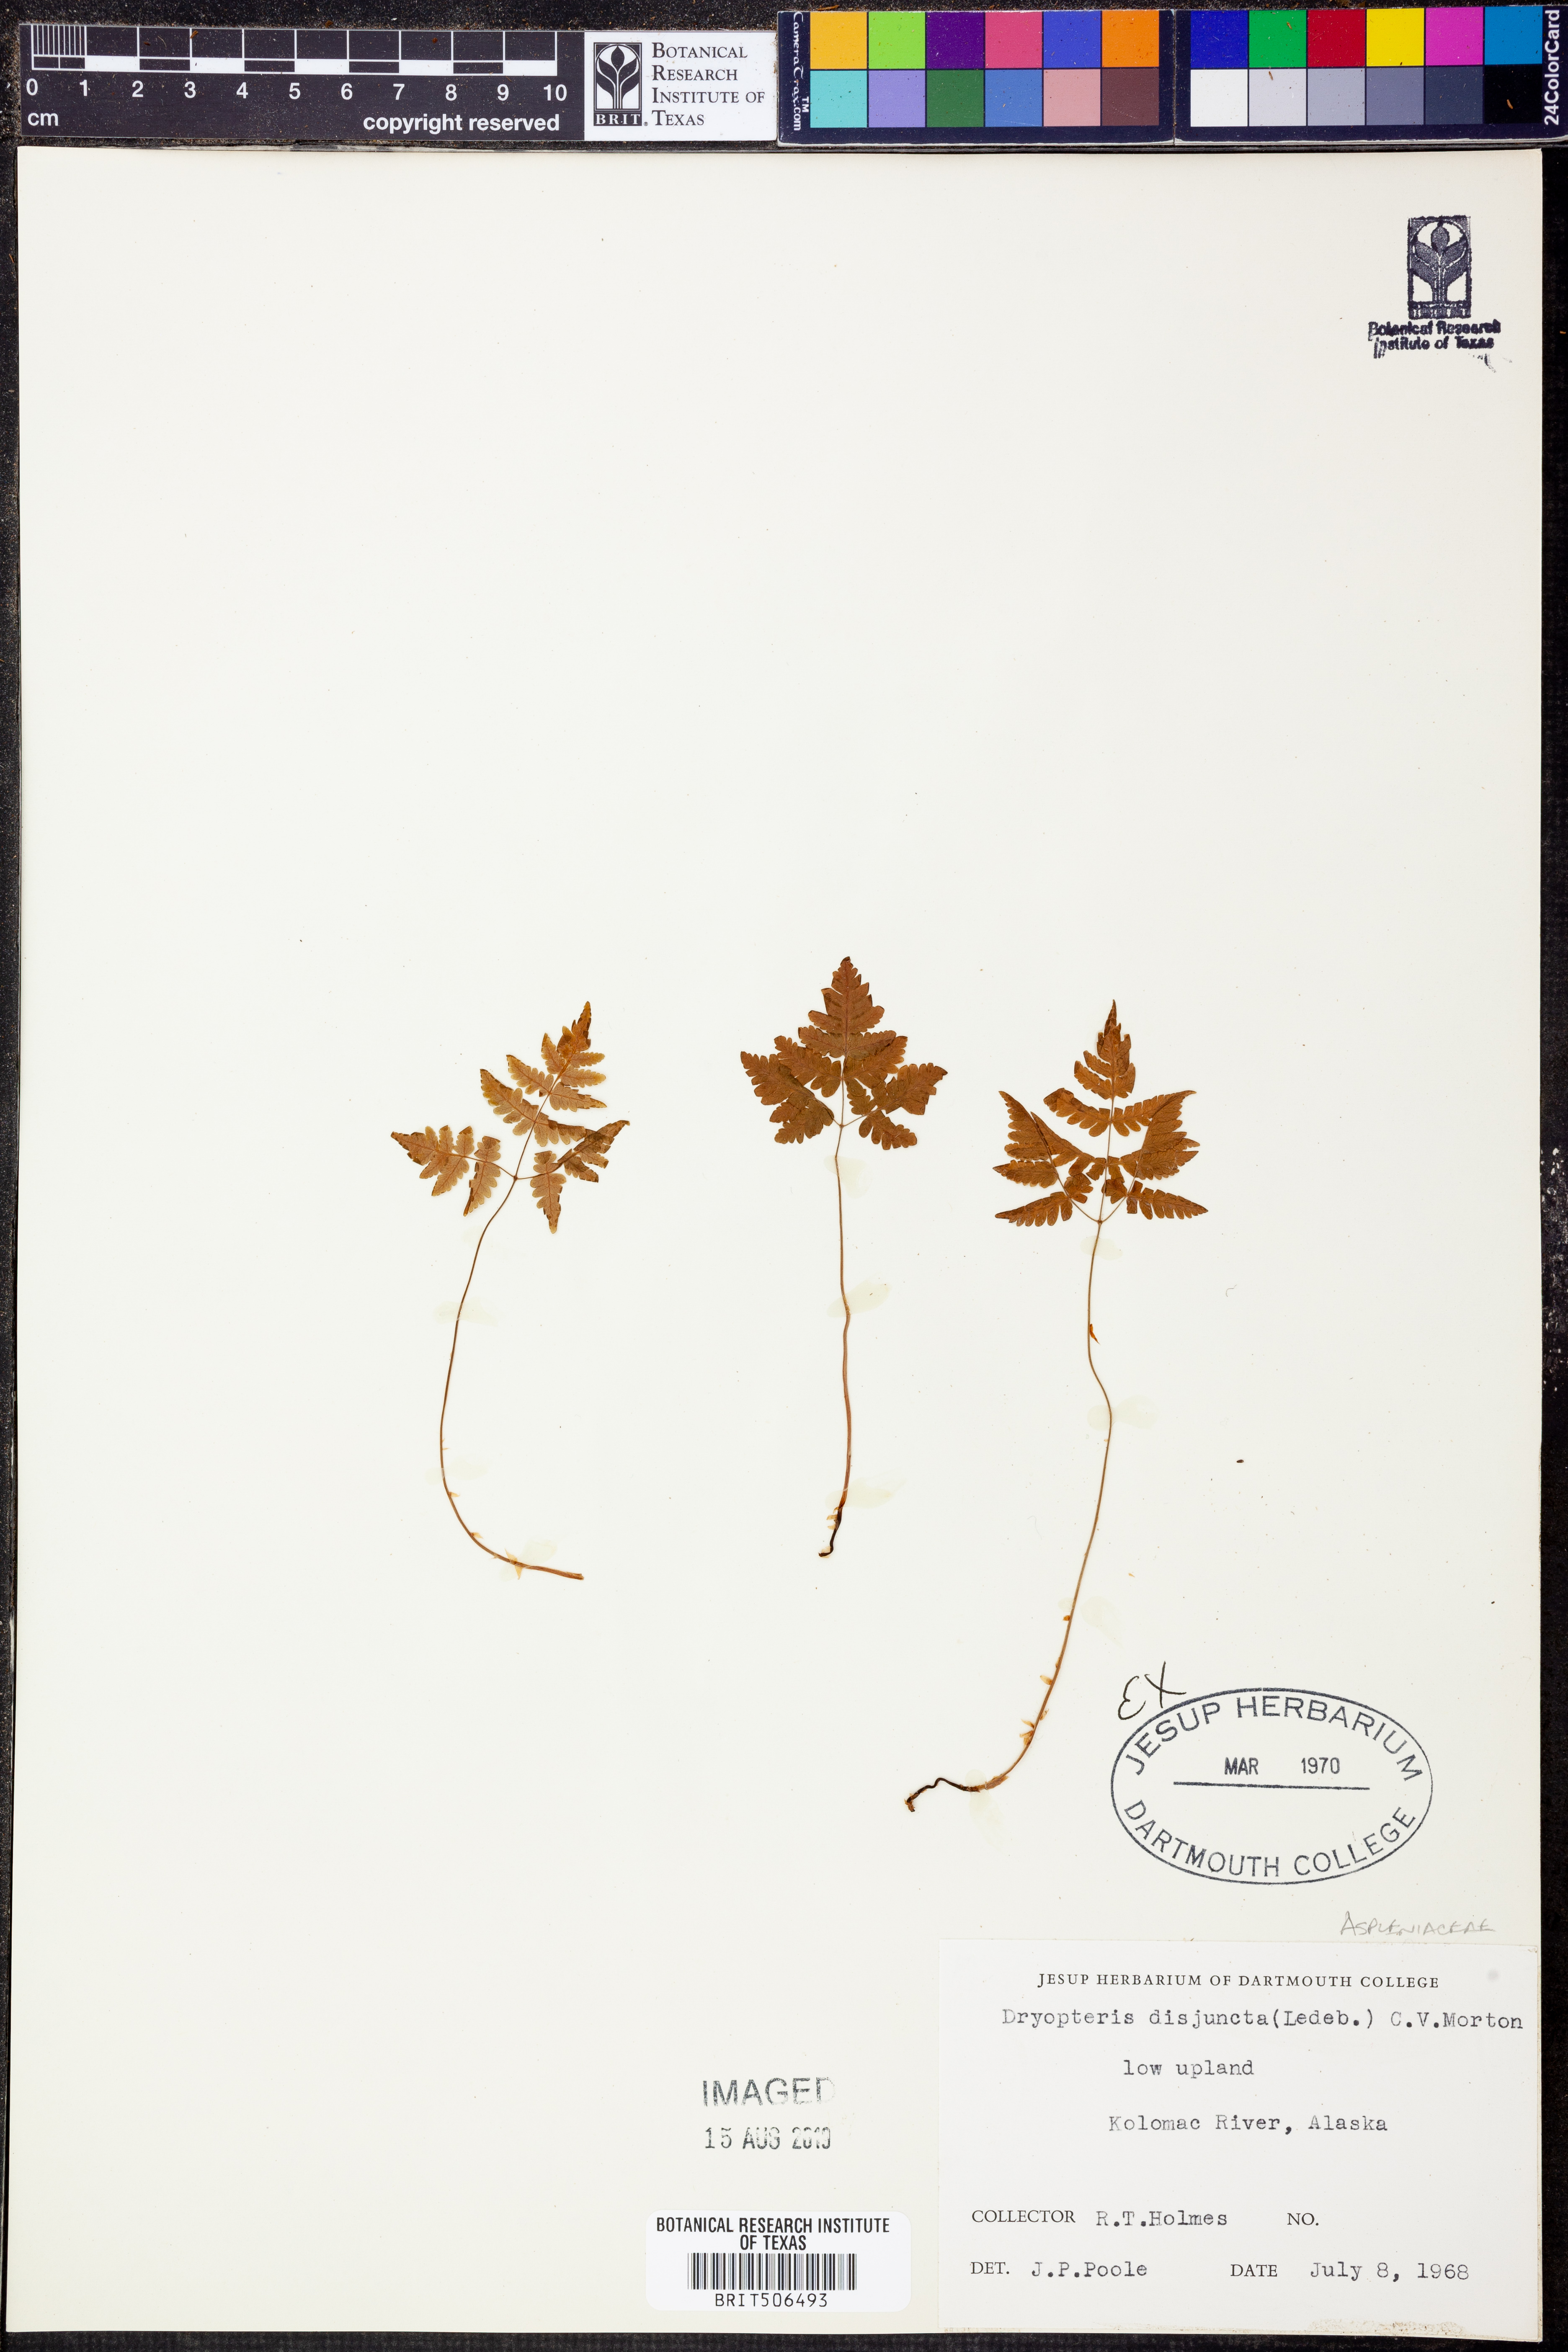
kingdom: Plantae
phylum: Tracheophyta
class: Polypodiopsida
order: Polypodiales
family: Cystopteridaceae
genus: Gymnocarpium
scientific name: Gymnocarpium disjunctum
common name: Western oak fern
